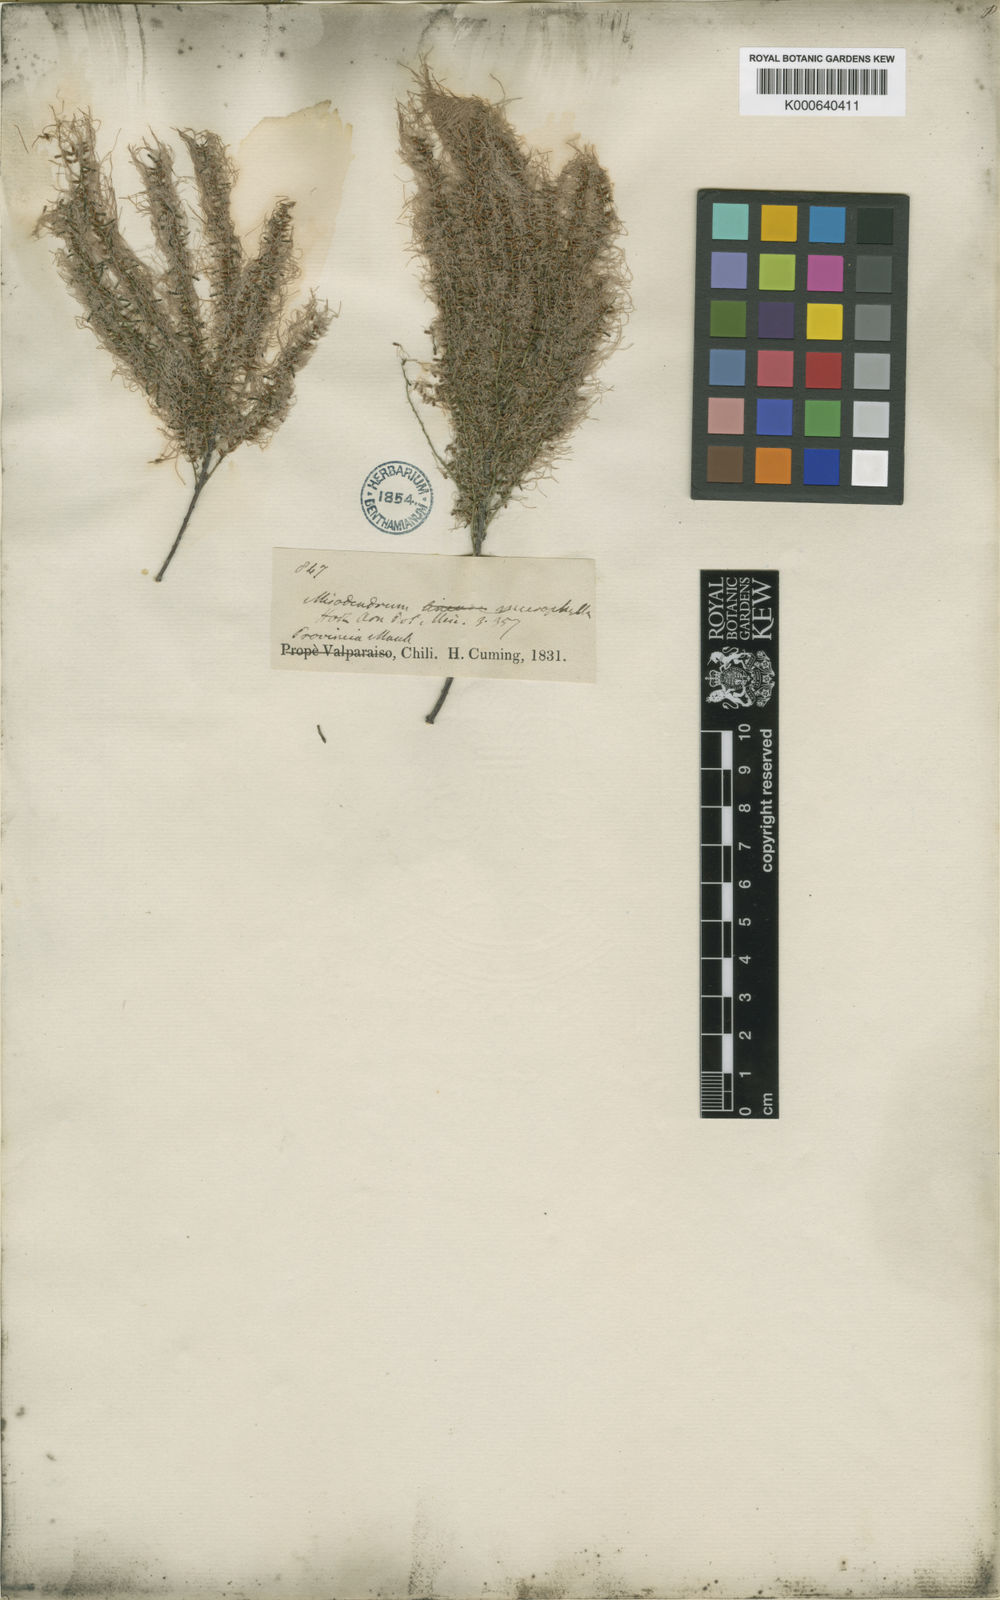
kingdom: Plantae
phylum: Tracheophyta
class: Magnoliopsida
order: Santalales
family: Misodendraceae
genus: Misodendrum
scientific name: Misodendrum linearifolium
